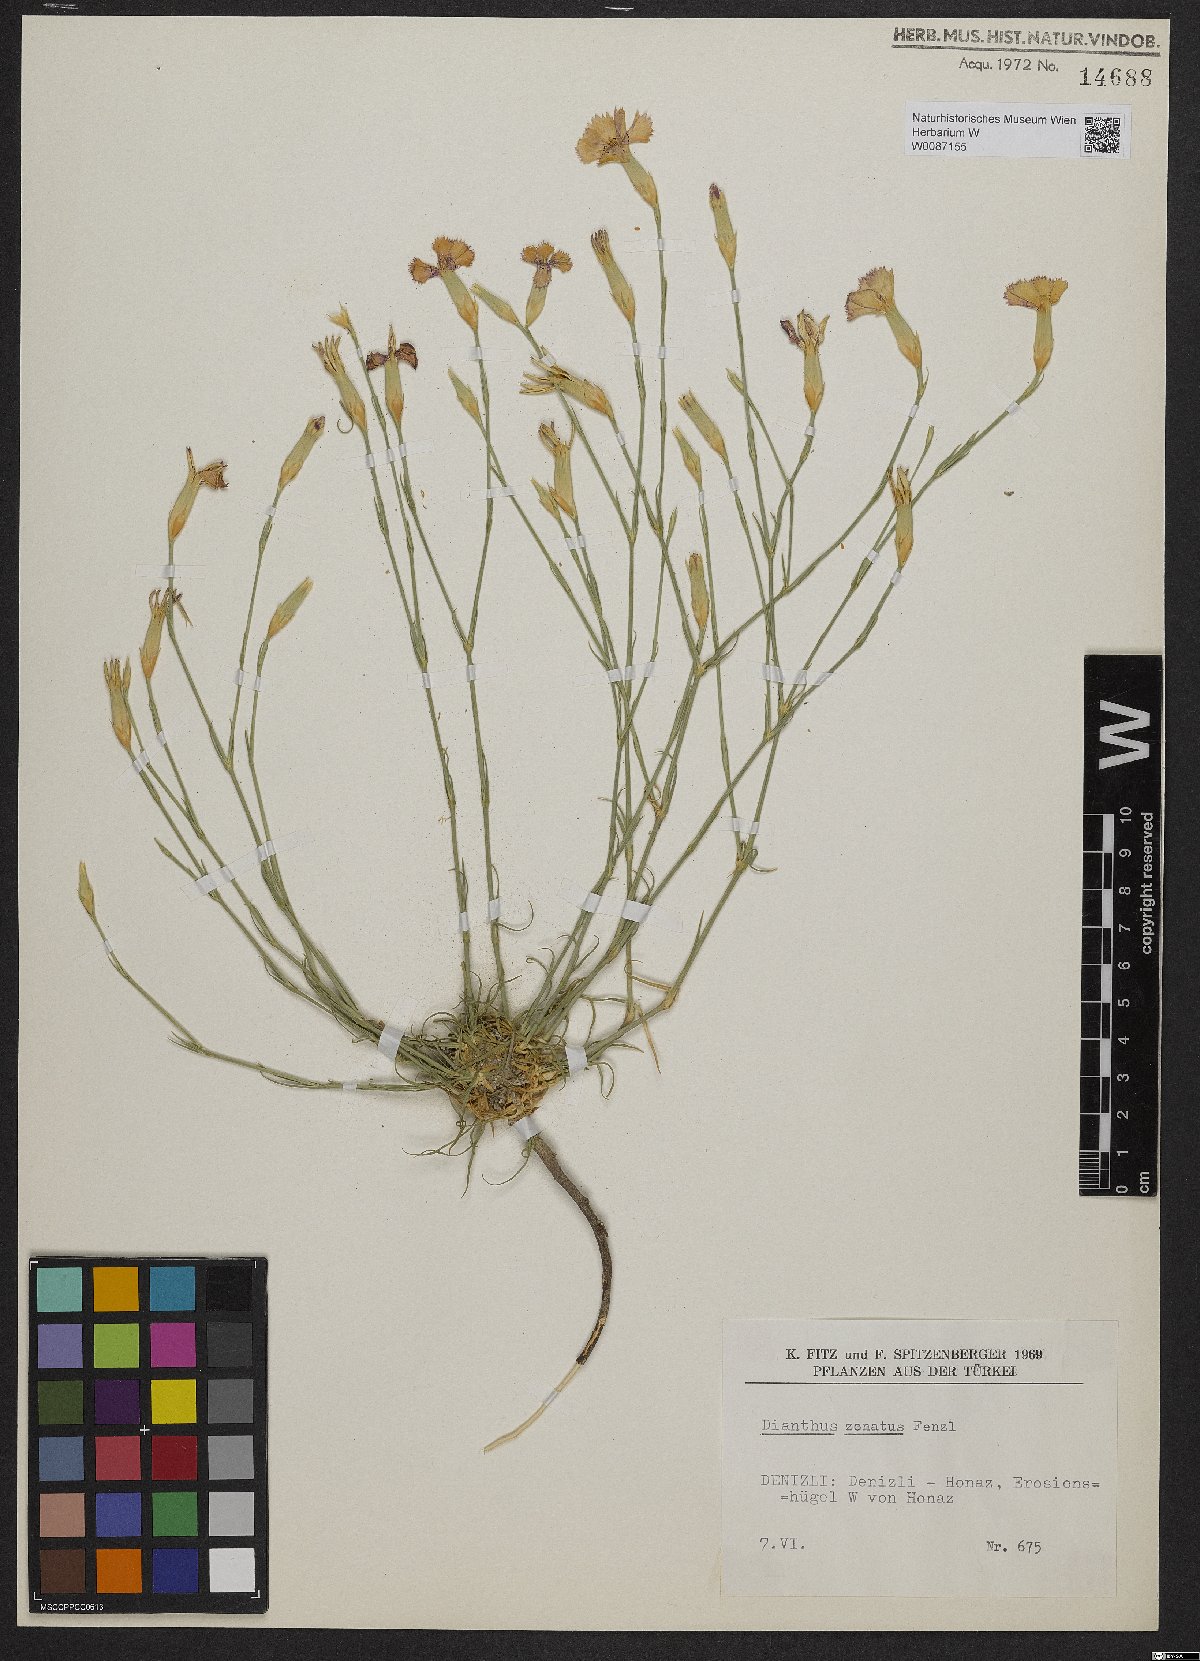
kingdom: Plantae
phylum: Tracheophyta
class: Magnoliopsida
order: Caryophyllales
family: Caryophyllaceae
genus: Dianthus
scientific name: Dianthus zonatus
